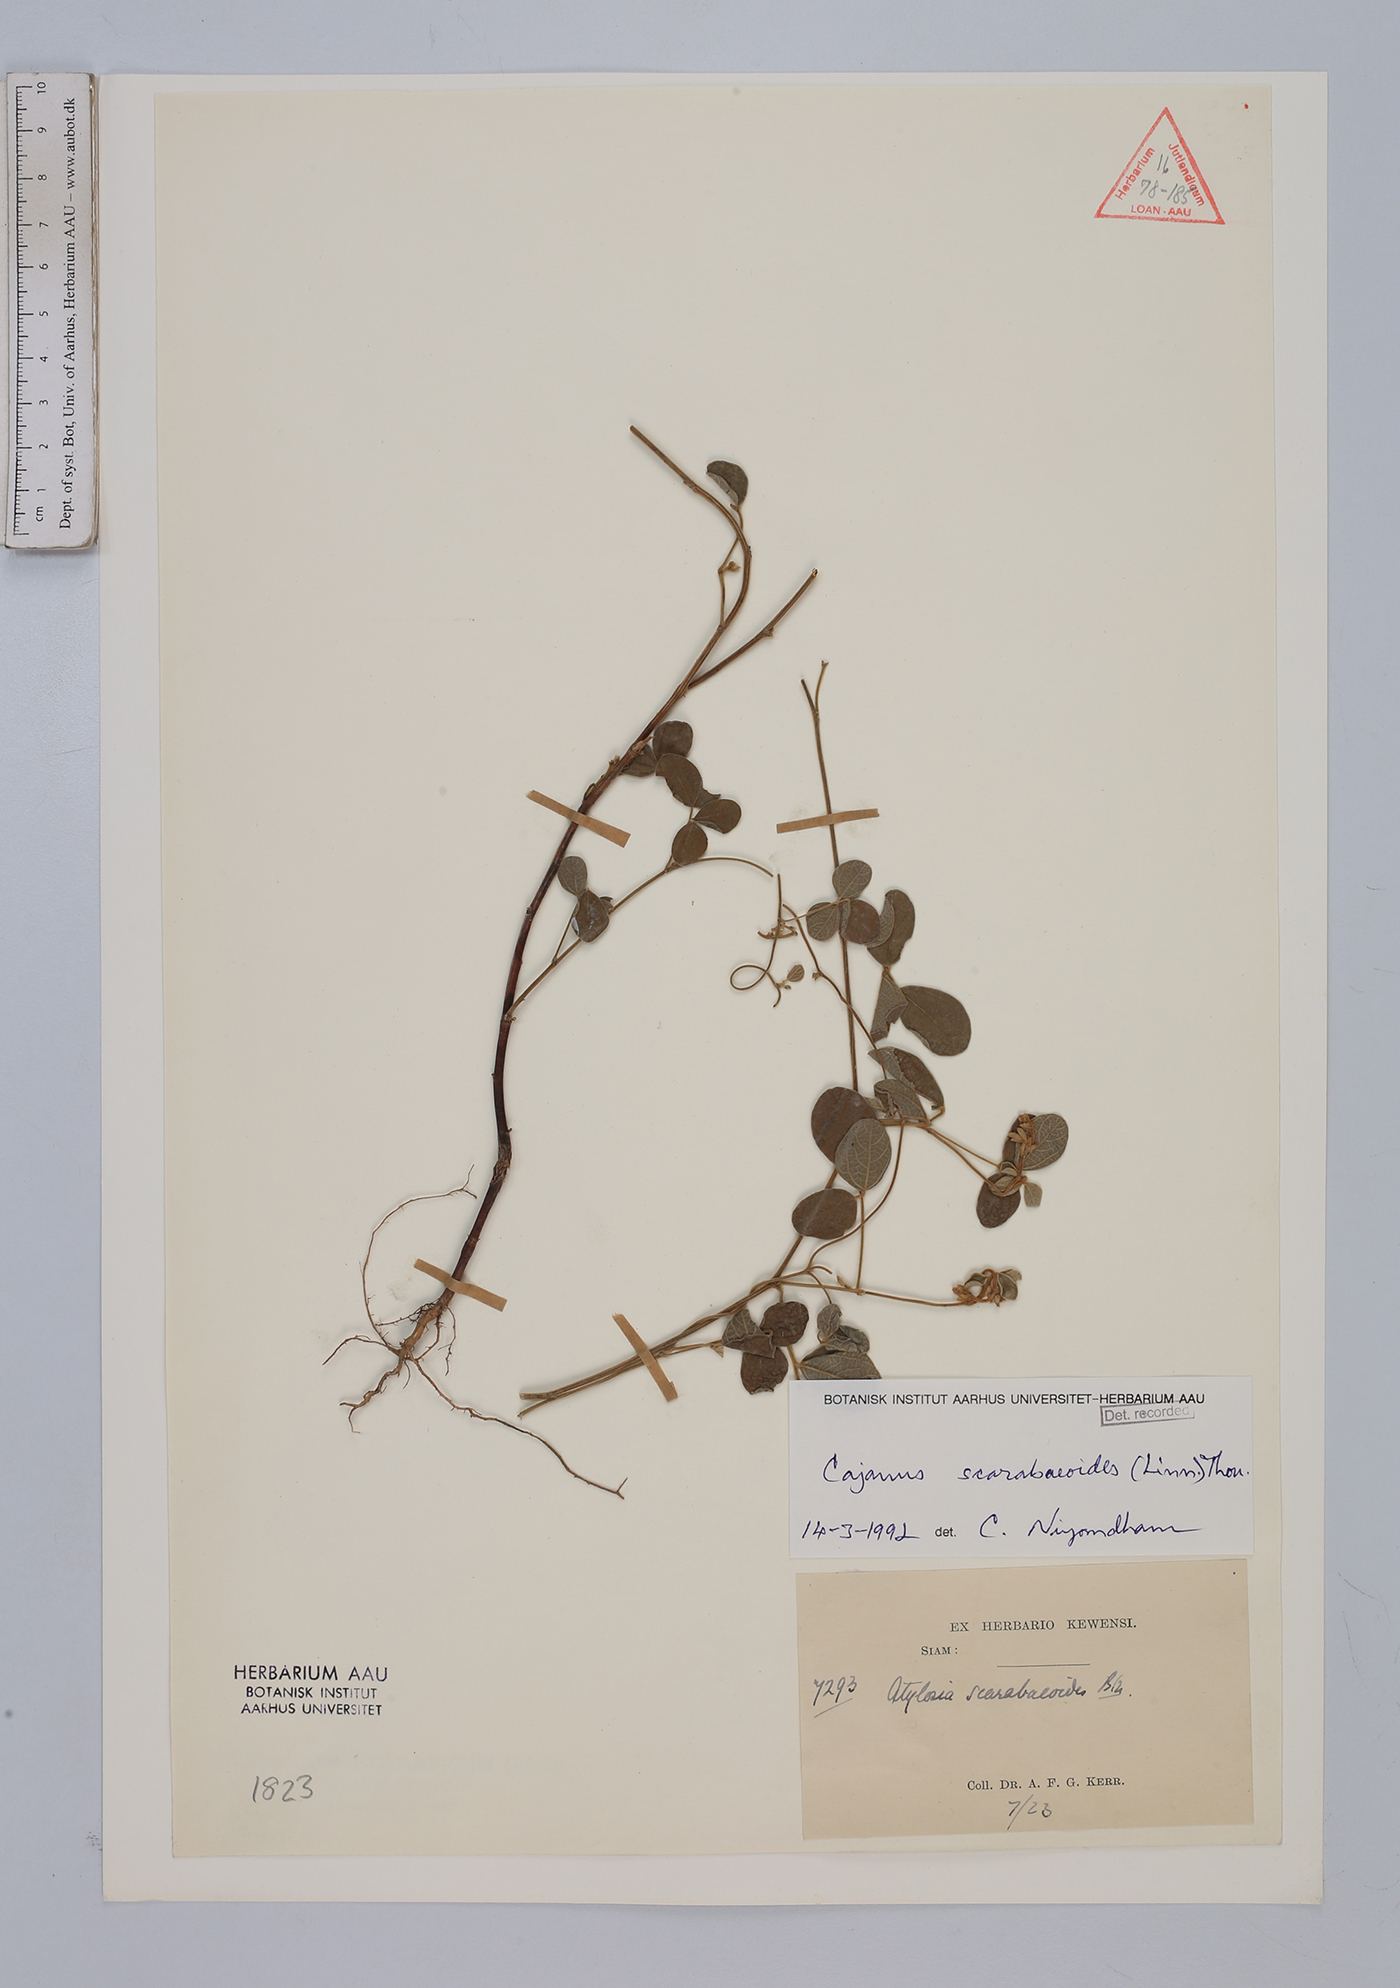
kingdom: Plantae
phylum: Tracheophyta
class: Magnoliopsida
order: Fabales
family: Fabaceae
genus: Cajanus
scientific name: Cajanus scarabaeoides
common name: Showy pigeonpea
